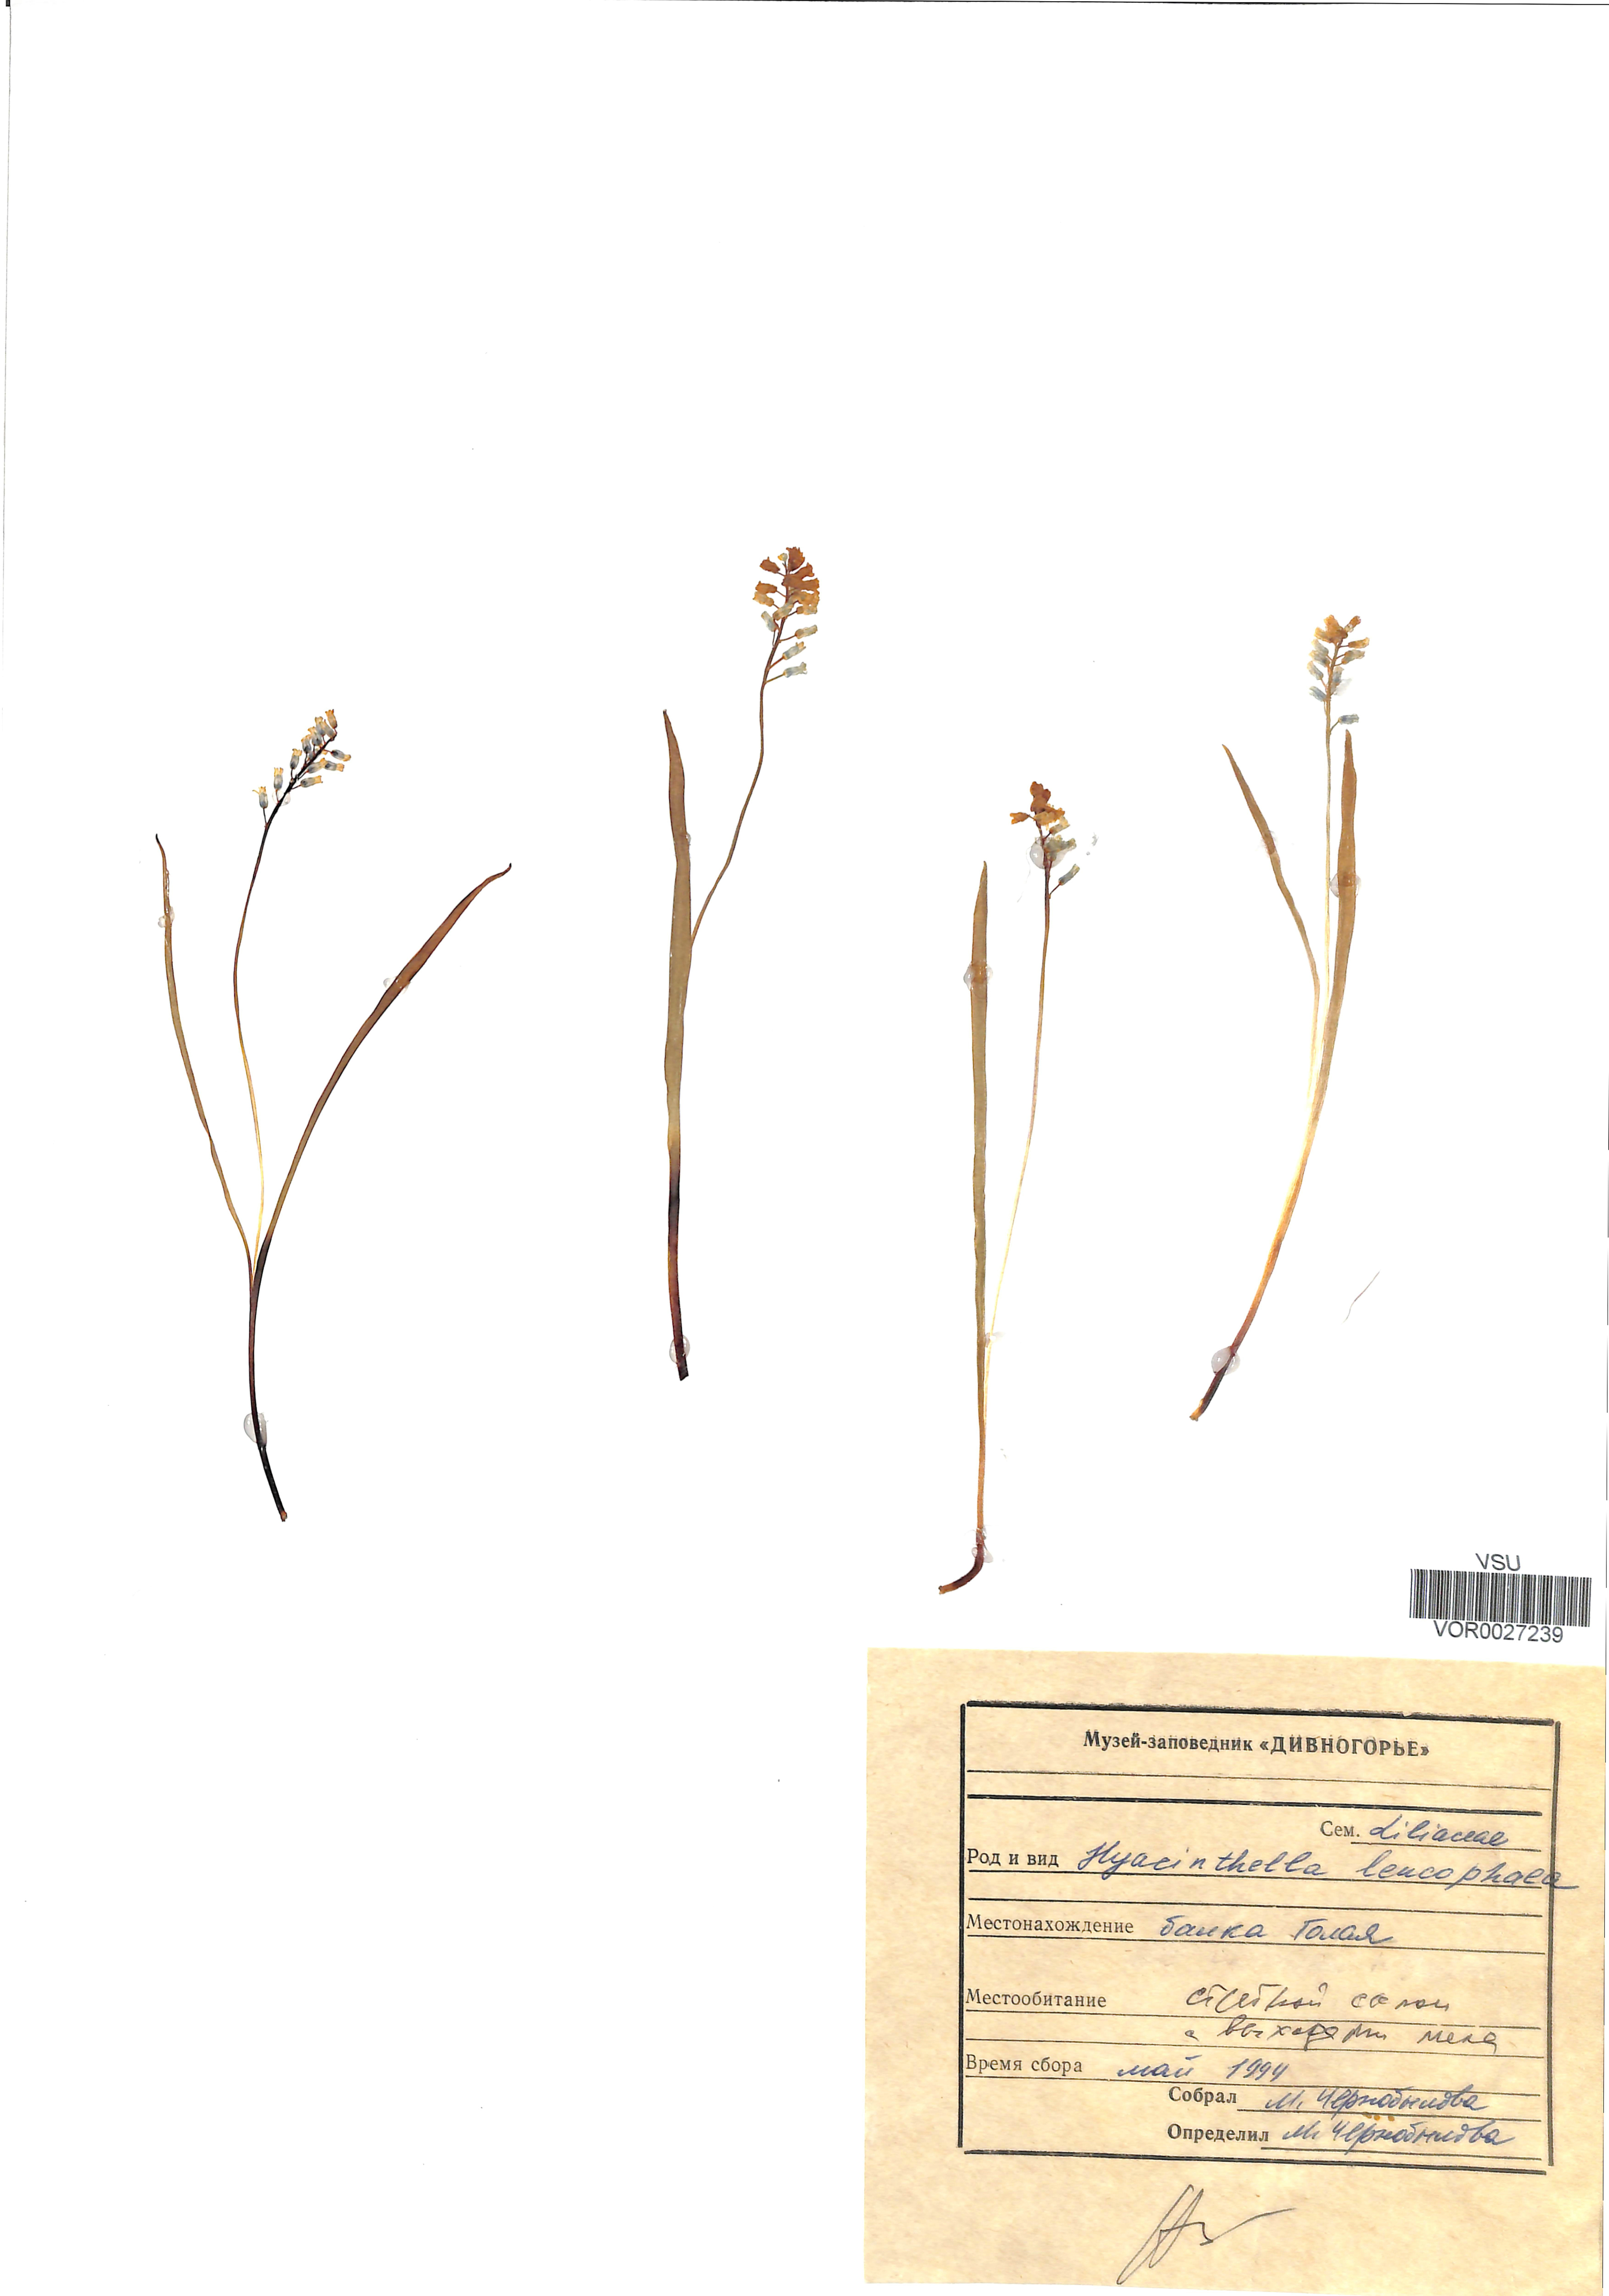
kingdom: Plantae
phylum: Tracheophyta
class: Liliopsida
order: Asparagales
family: Asparagaceae
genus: Hyacinthella
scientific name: Hyacinthella leucophaea
